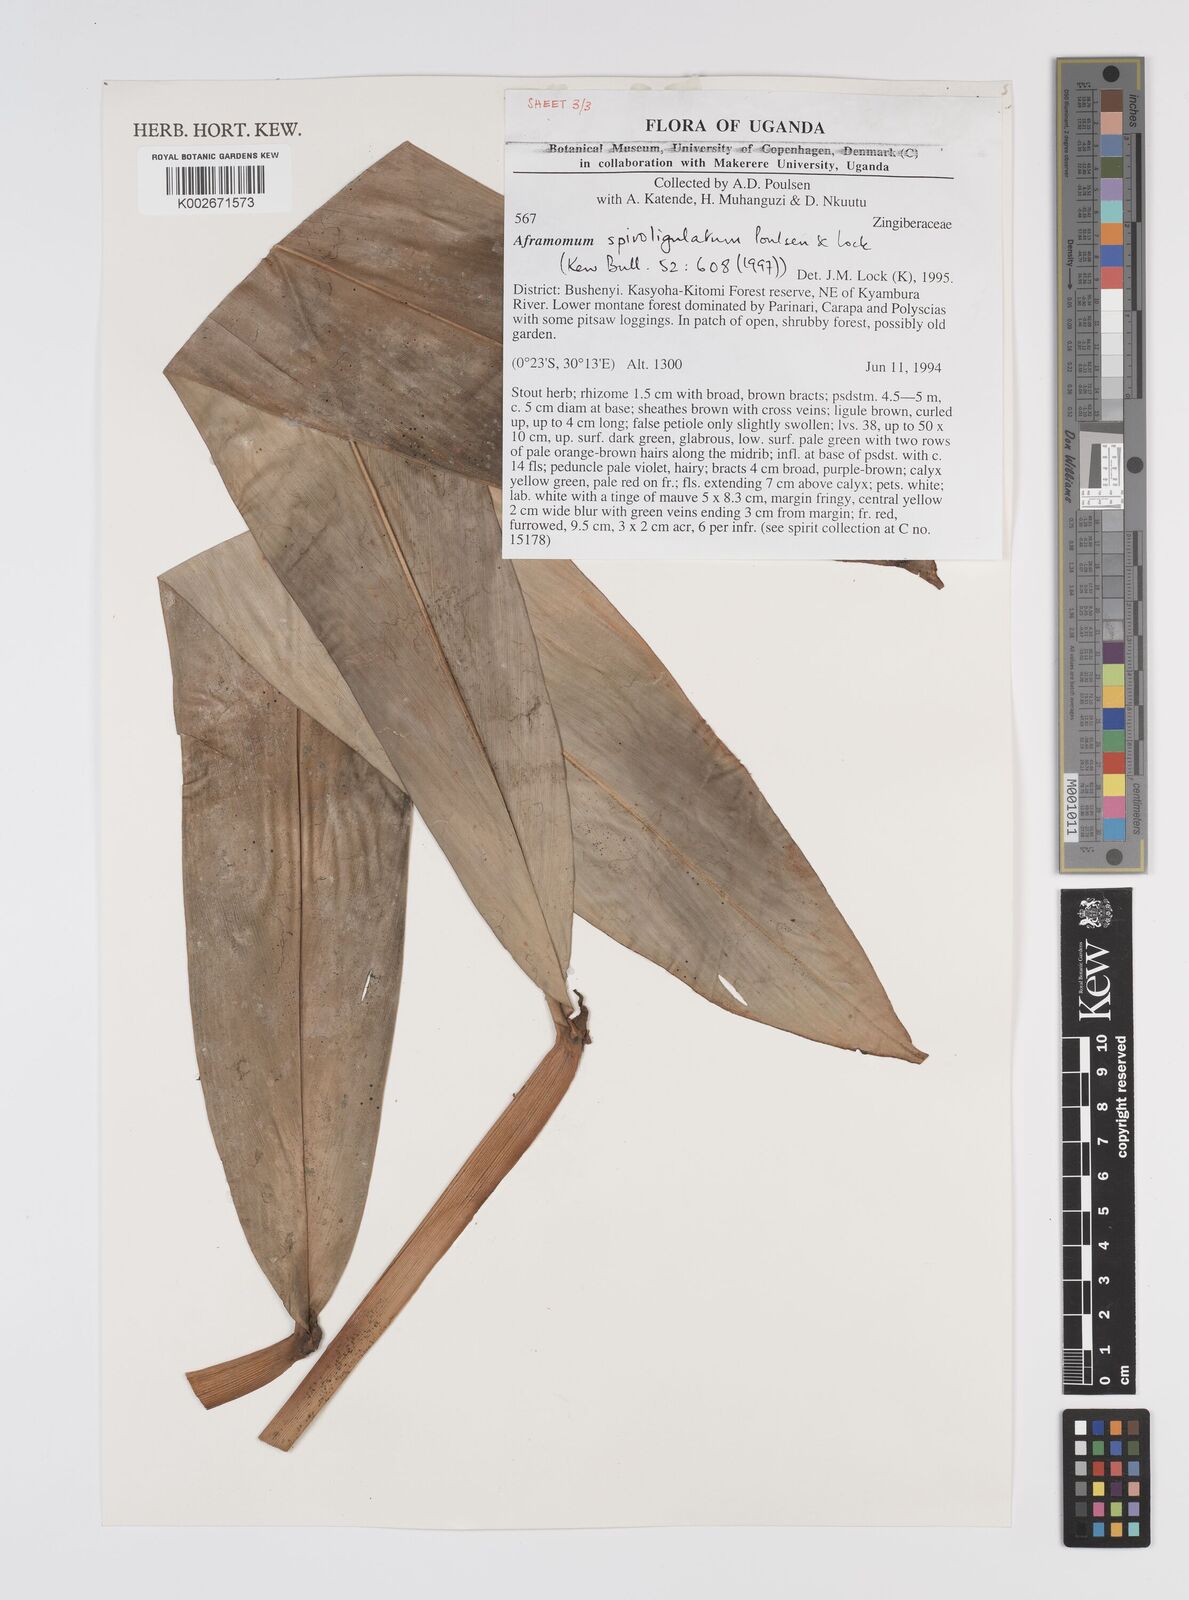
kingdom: Plantae
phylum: Tracheophyta
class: Liliopsida
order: Zingiberales
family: Zingiberaceae
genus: Aframomum
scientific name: Aframomum spiroligulatum
